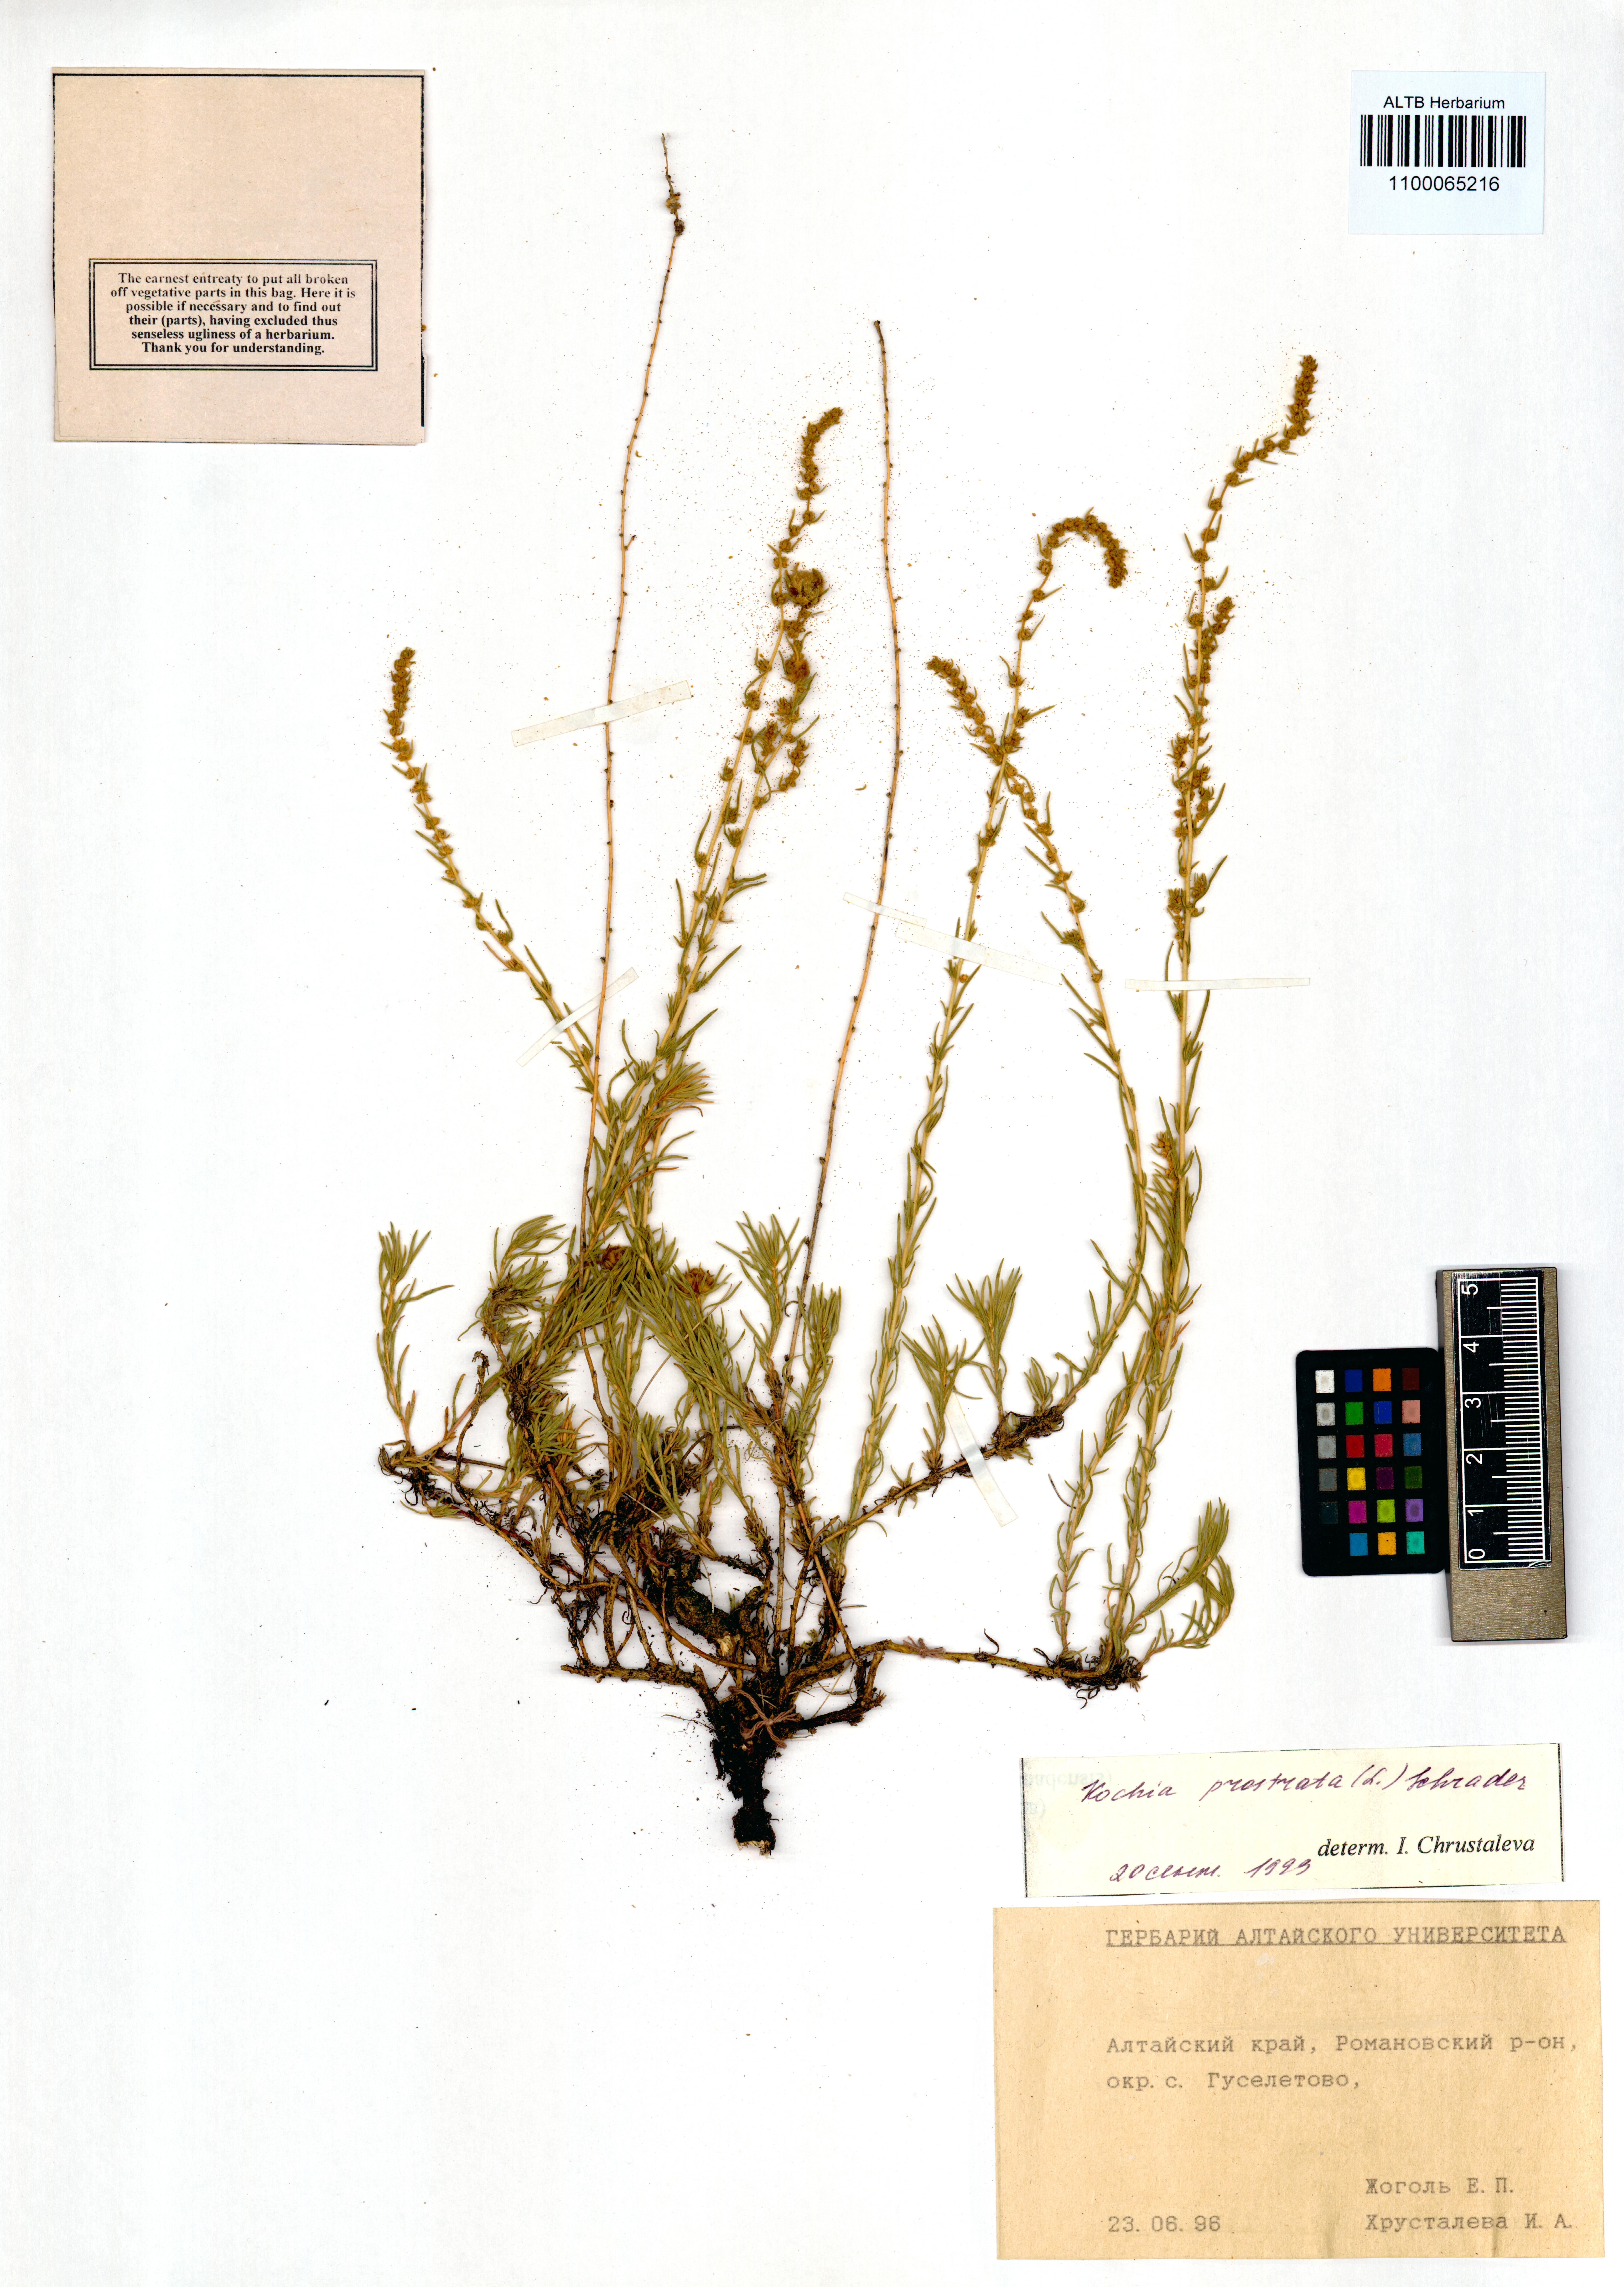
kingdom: Plantae
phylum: Tracheophyta
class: Magnoliopsida
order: Caryophyllales
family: Amaranthaceae
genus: Bassia
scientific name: Bassia prostrata
